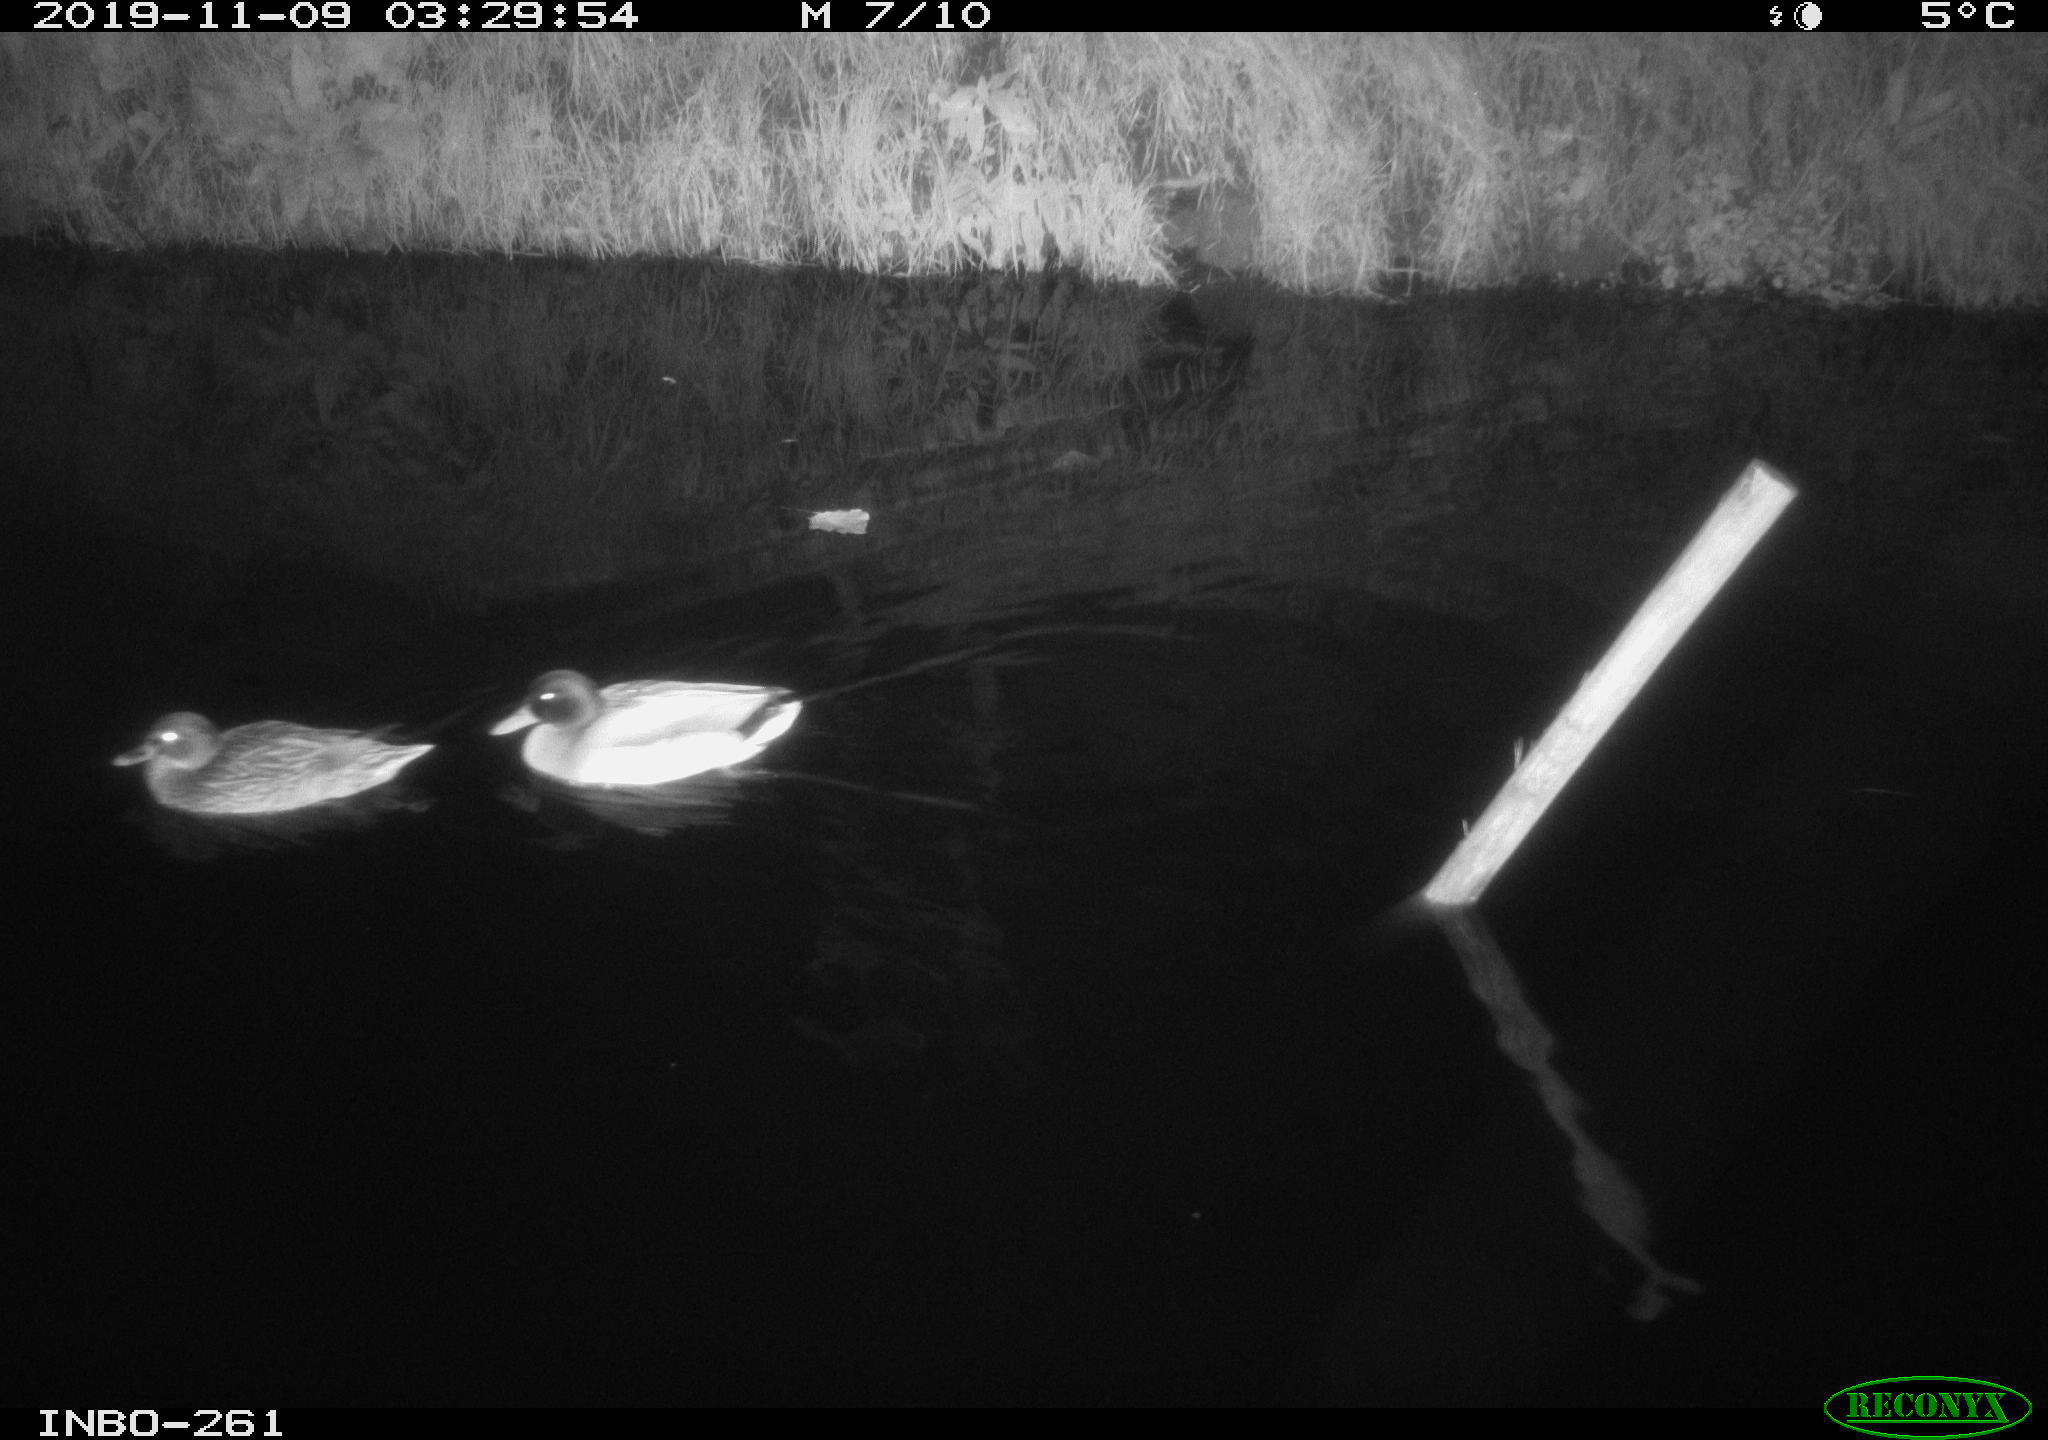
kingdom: Animalia
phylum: Chordata
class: Aves
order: Anseriformes
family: Anatidae
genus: Anas
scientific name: Anas platyrhynchos
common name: Mallard
